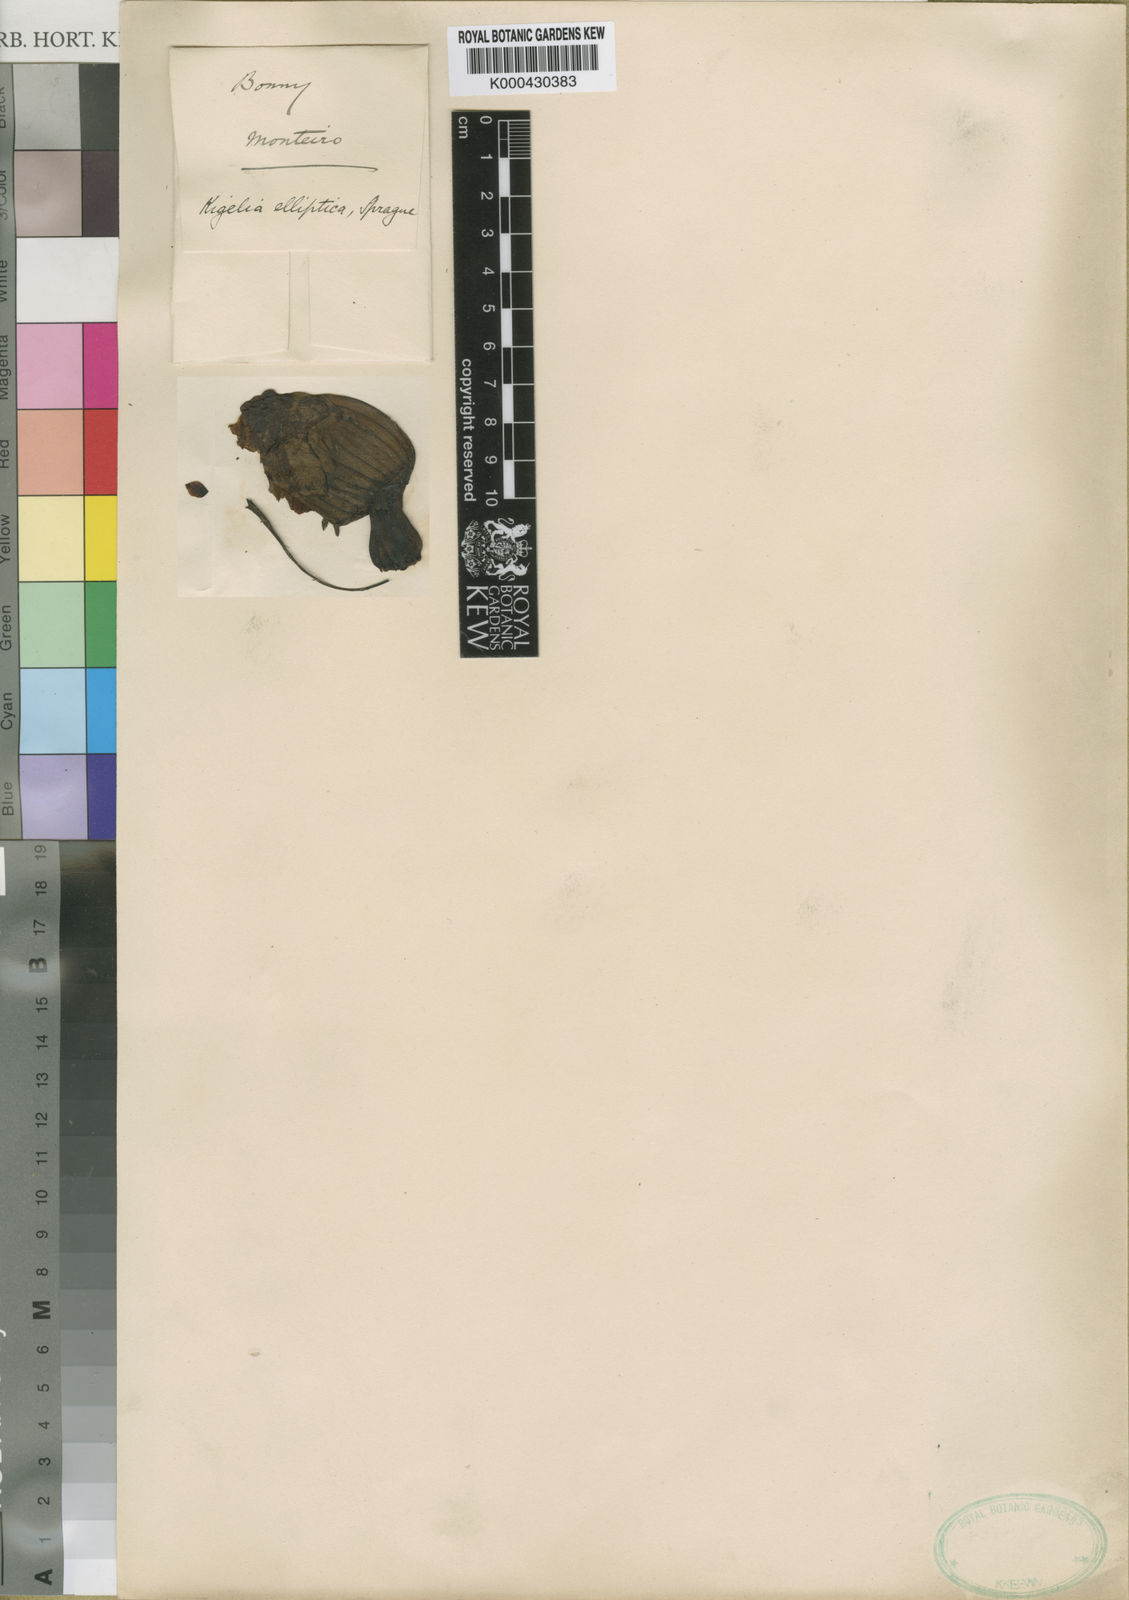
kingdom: Plantae
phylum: Tracheophyta
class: Magnoliopsida
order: Lamiales
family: Bignoniaceae
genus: Kigelia
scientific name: Kigelia africana
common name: Sausage tree
